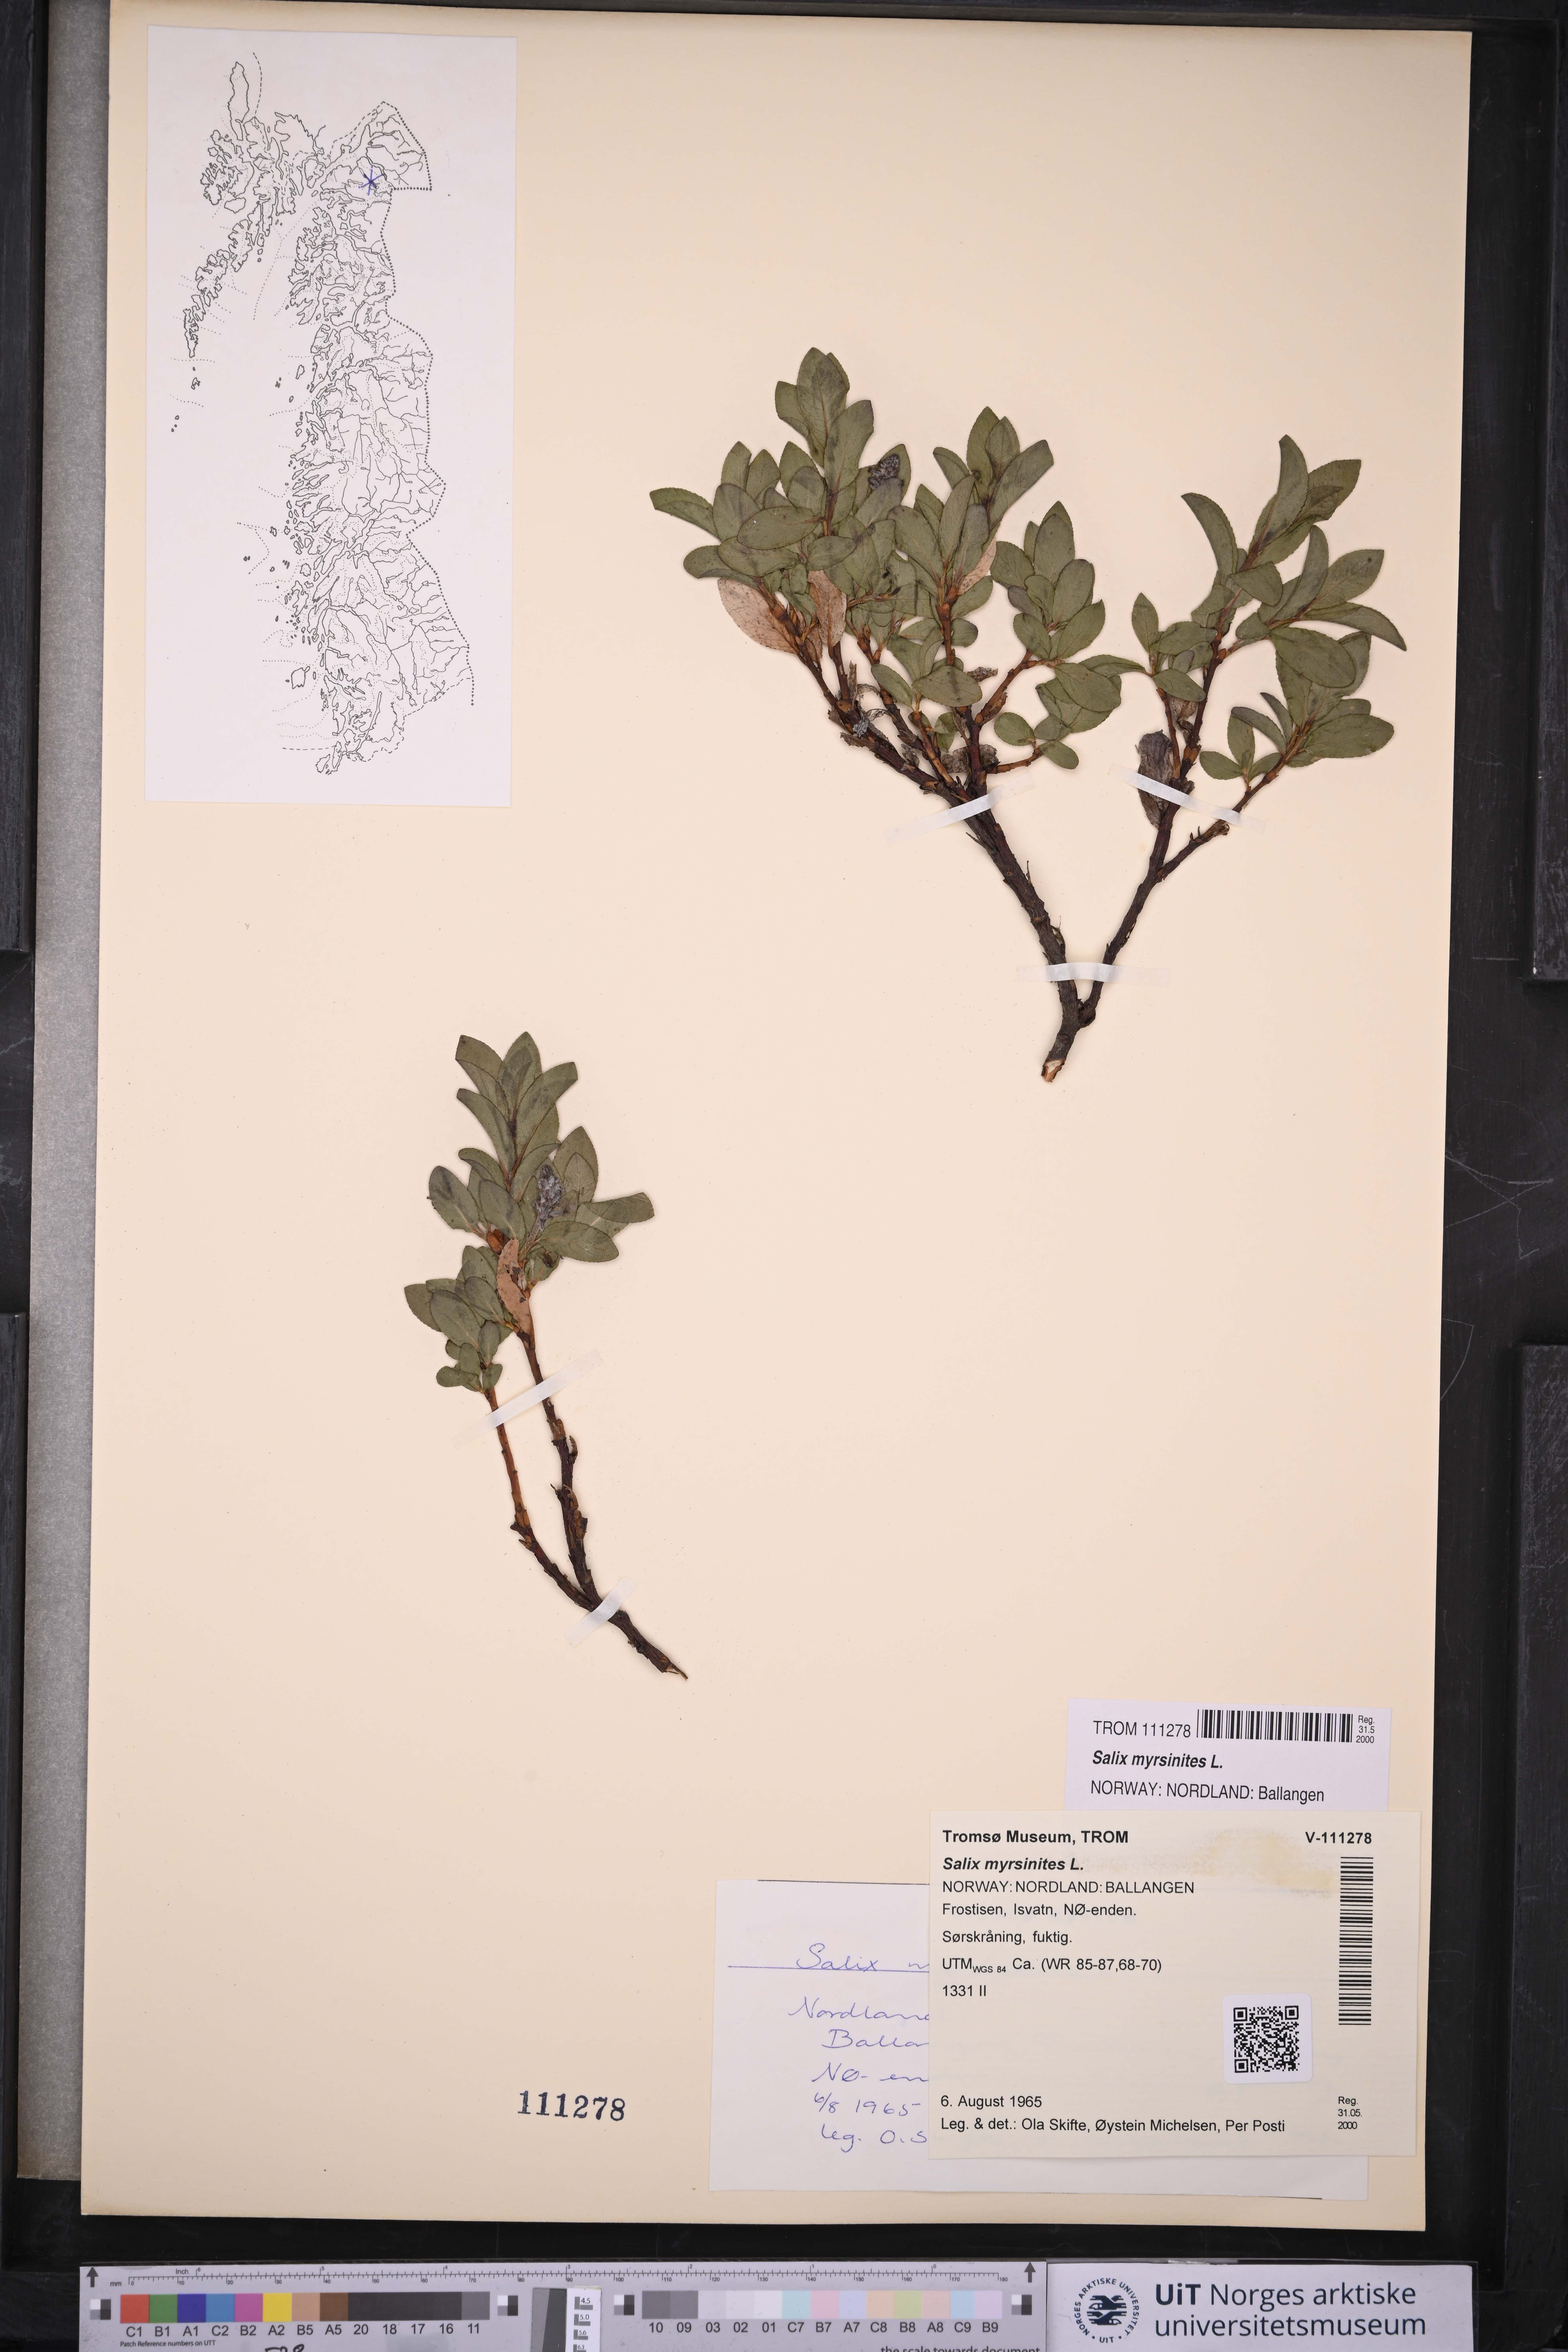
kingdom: Plantae
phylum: Tracheophyta
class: Magnoliopsida
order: Malpighiales
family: Salicaceae
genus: Salix
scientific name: Salix myrsinites
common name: Myrtle willow
